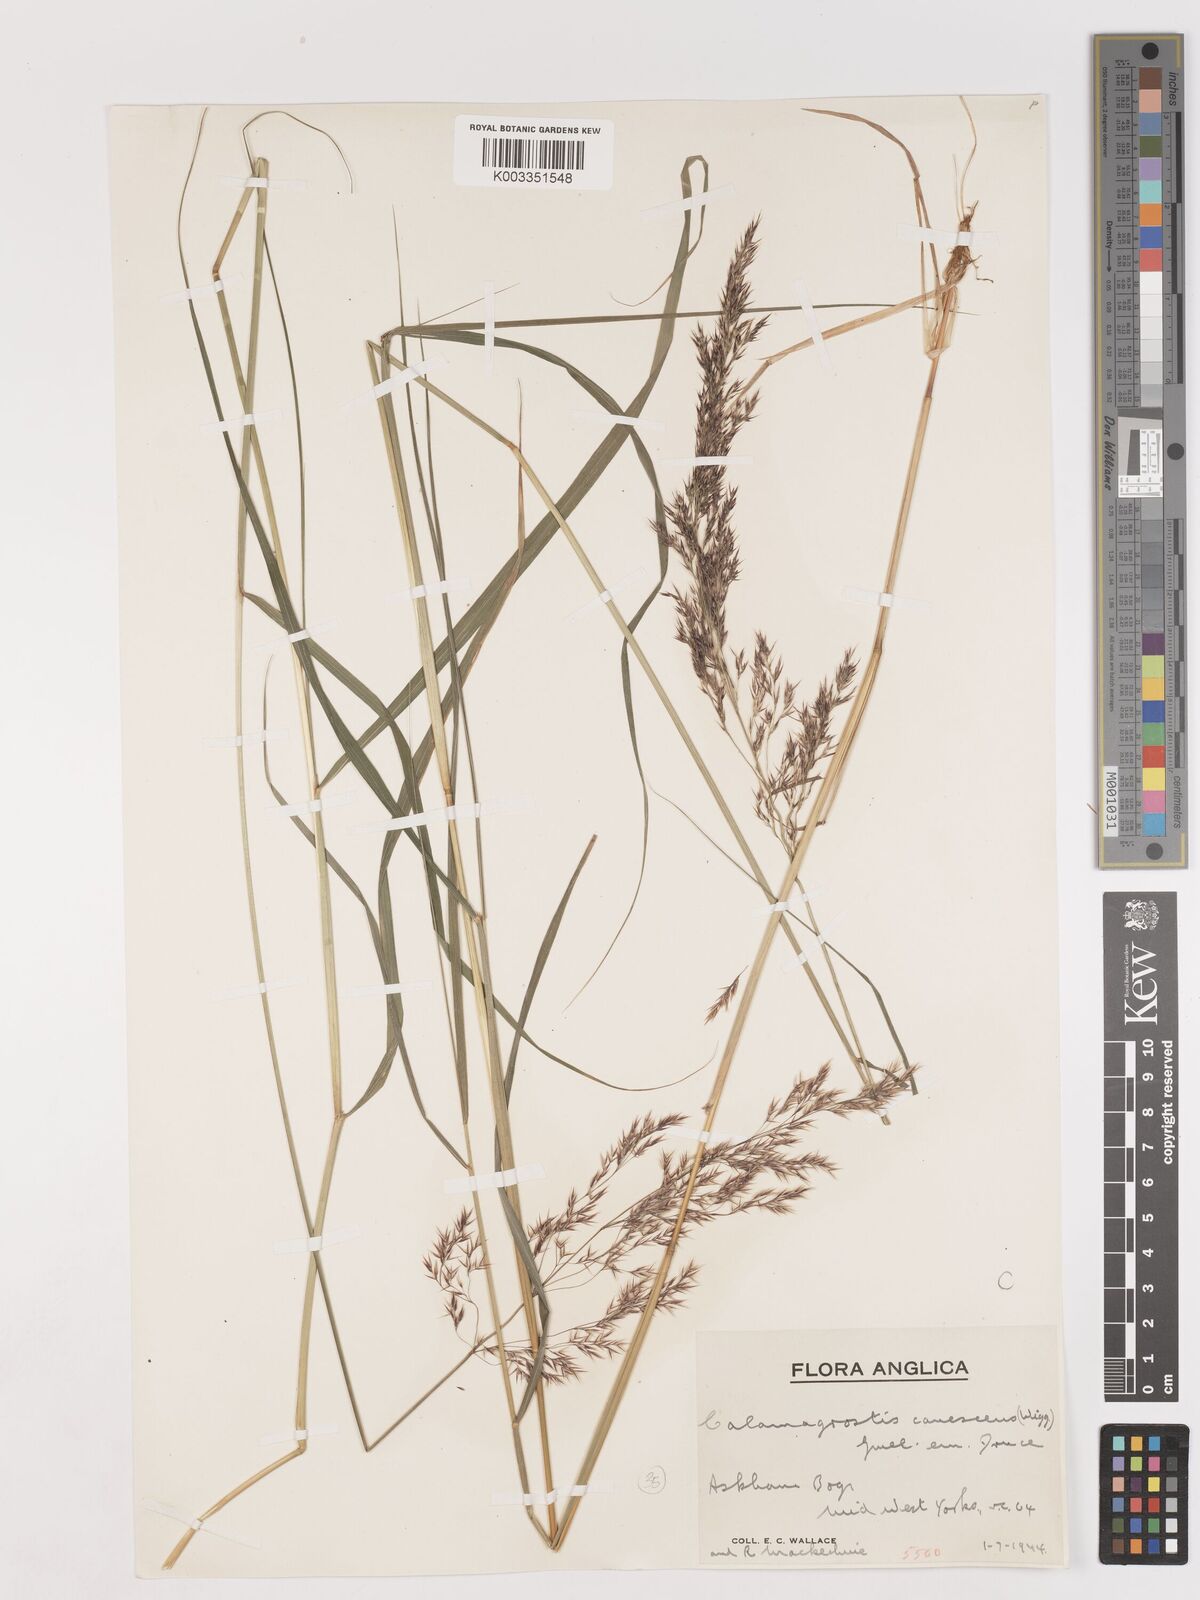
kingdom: Plantae
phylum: Tracheophyta
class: Liliopsida
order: Poales
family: Poaceae
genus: Calamagrostis
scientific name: Calamagrostis canescens
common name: Purple small-reed
